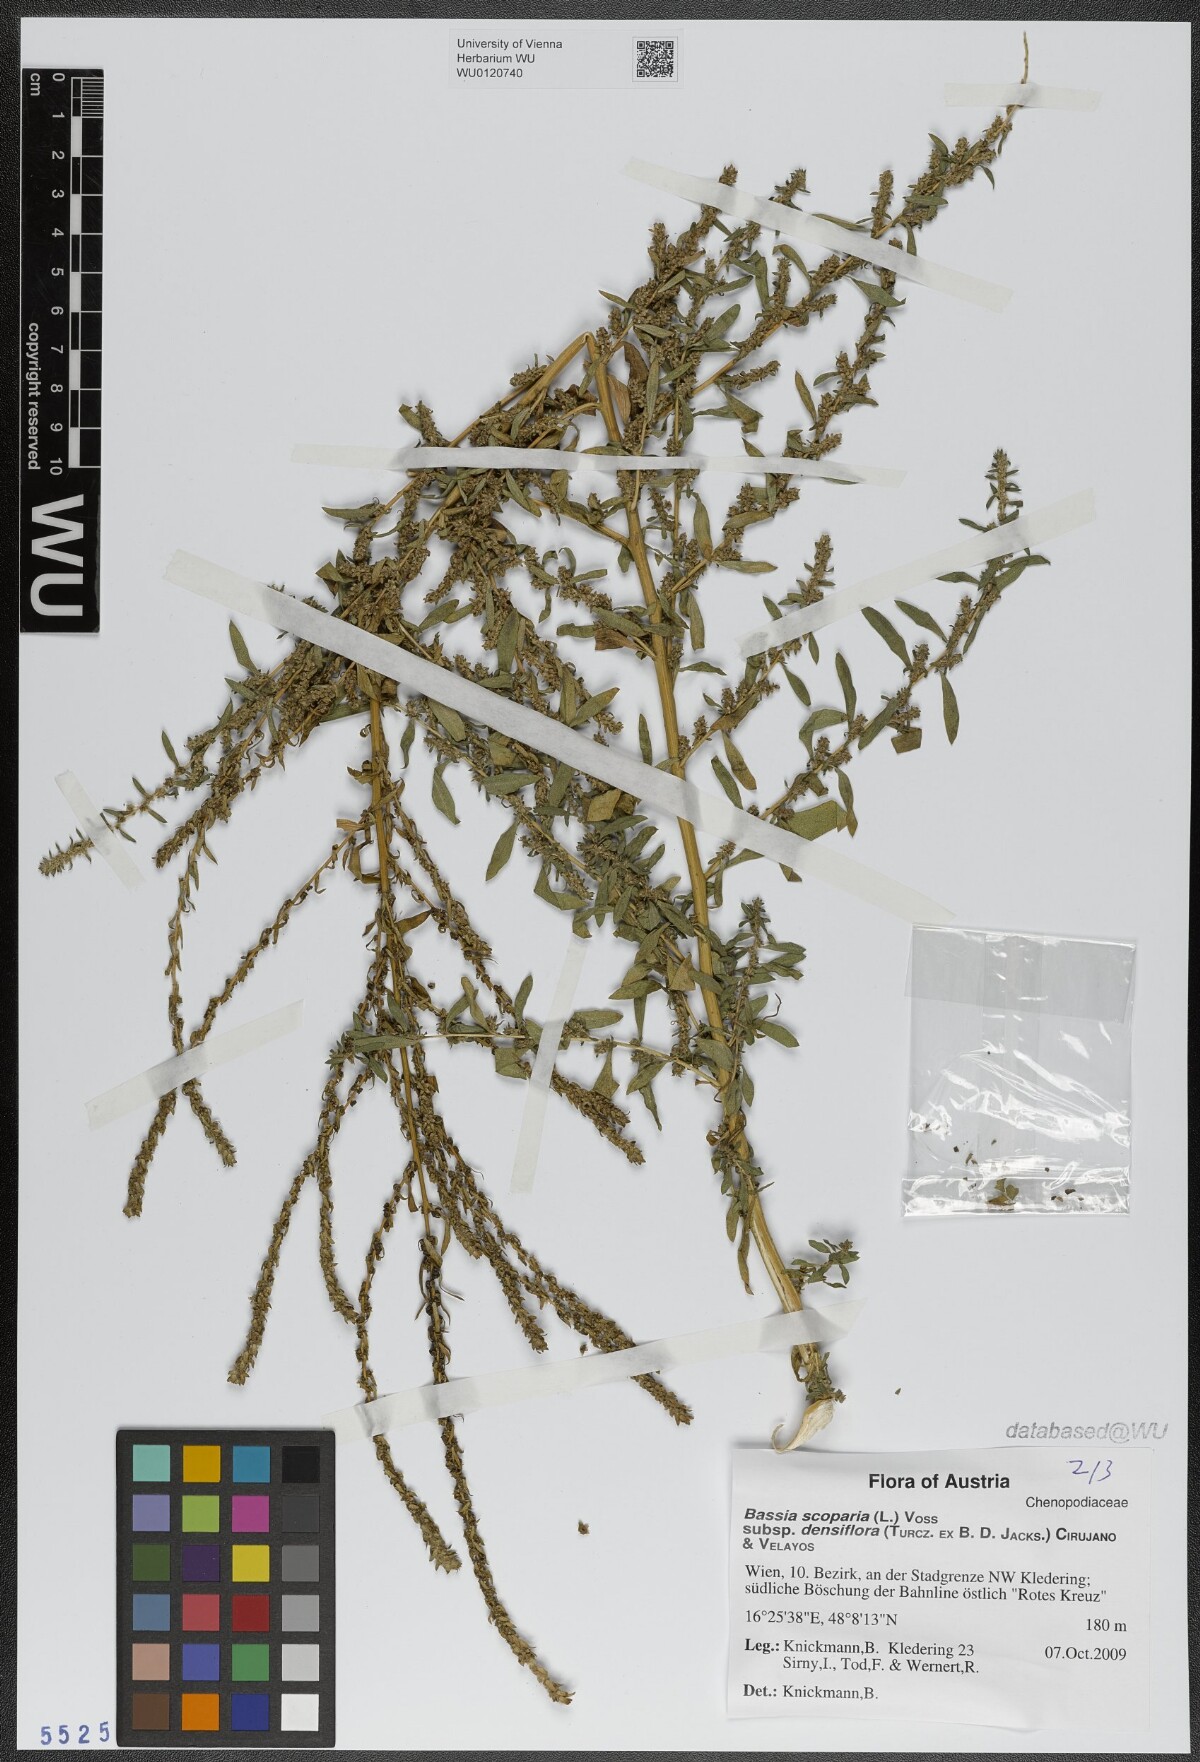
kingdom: Plantae
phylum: Tracheophyta
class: Magnoliopsida
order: Caryophyllales
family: Amaranthaceae
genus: Bassia
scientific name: Bassia scoparia
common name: Belvedere
